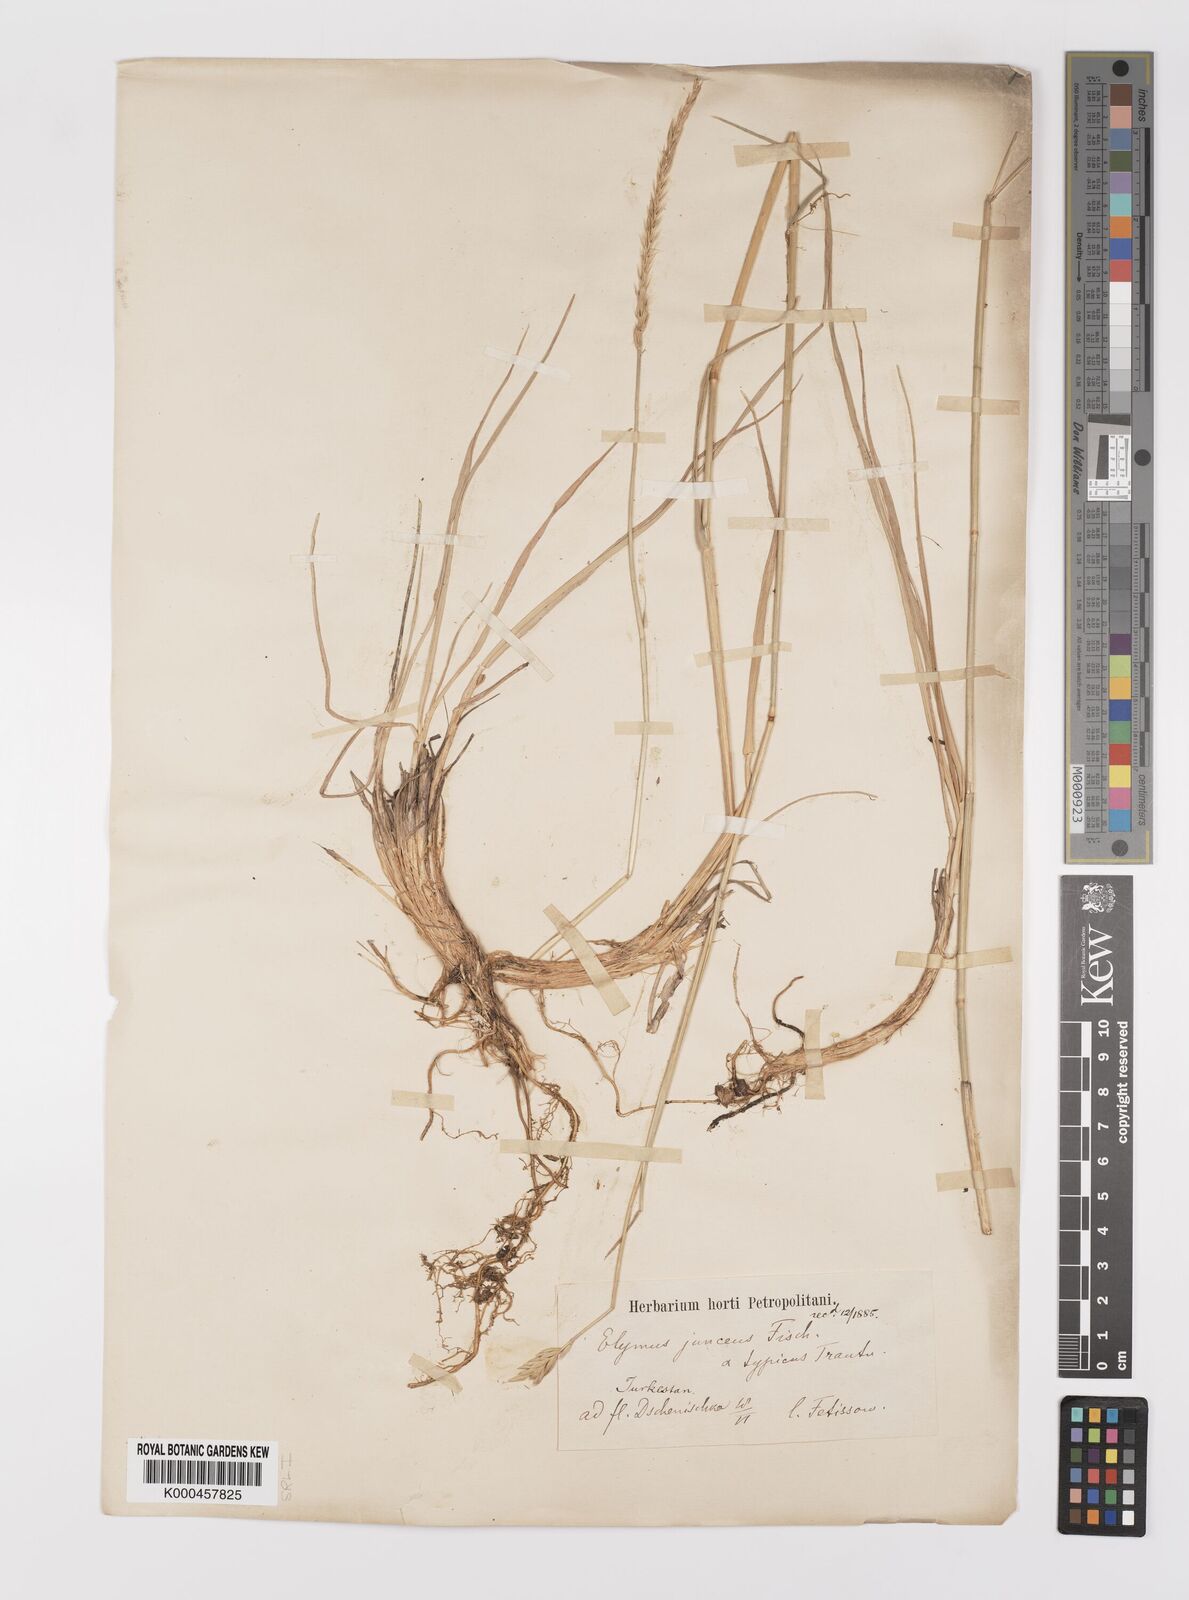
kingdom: Plantae
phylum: Tracheophyta
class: Liliopsida
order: Poales
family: Poaceae
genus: Psathyrostachys
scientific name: Psathyrostachys juncea
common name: Russian wildrye
